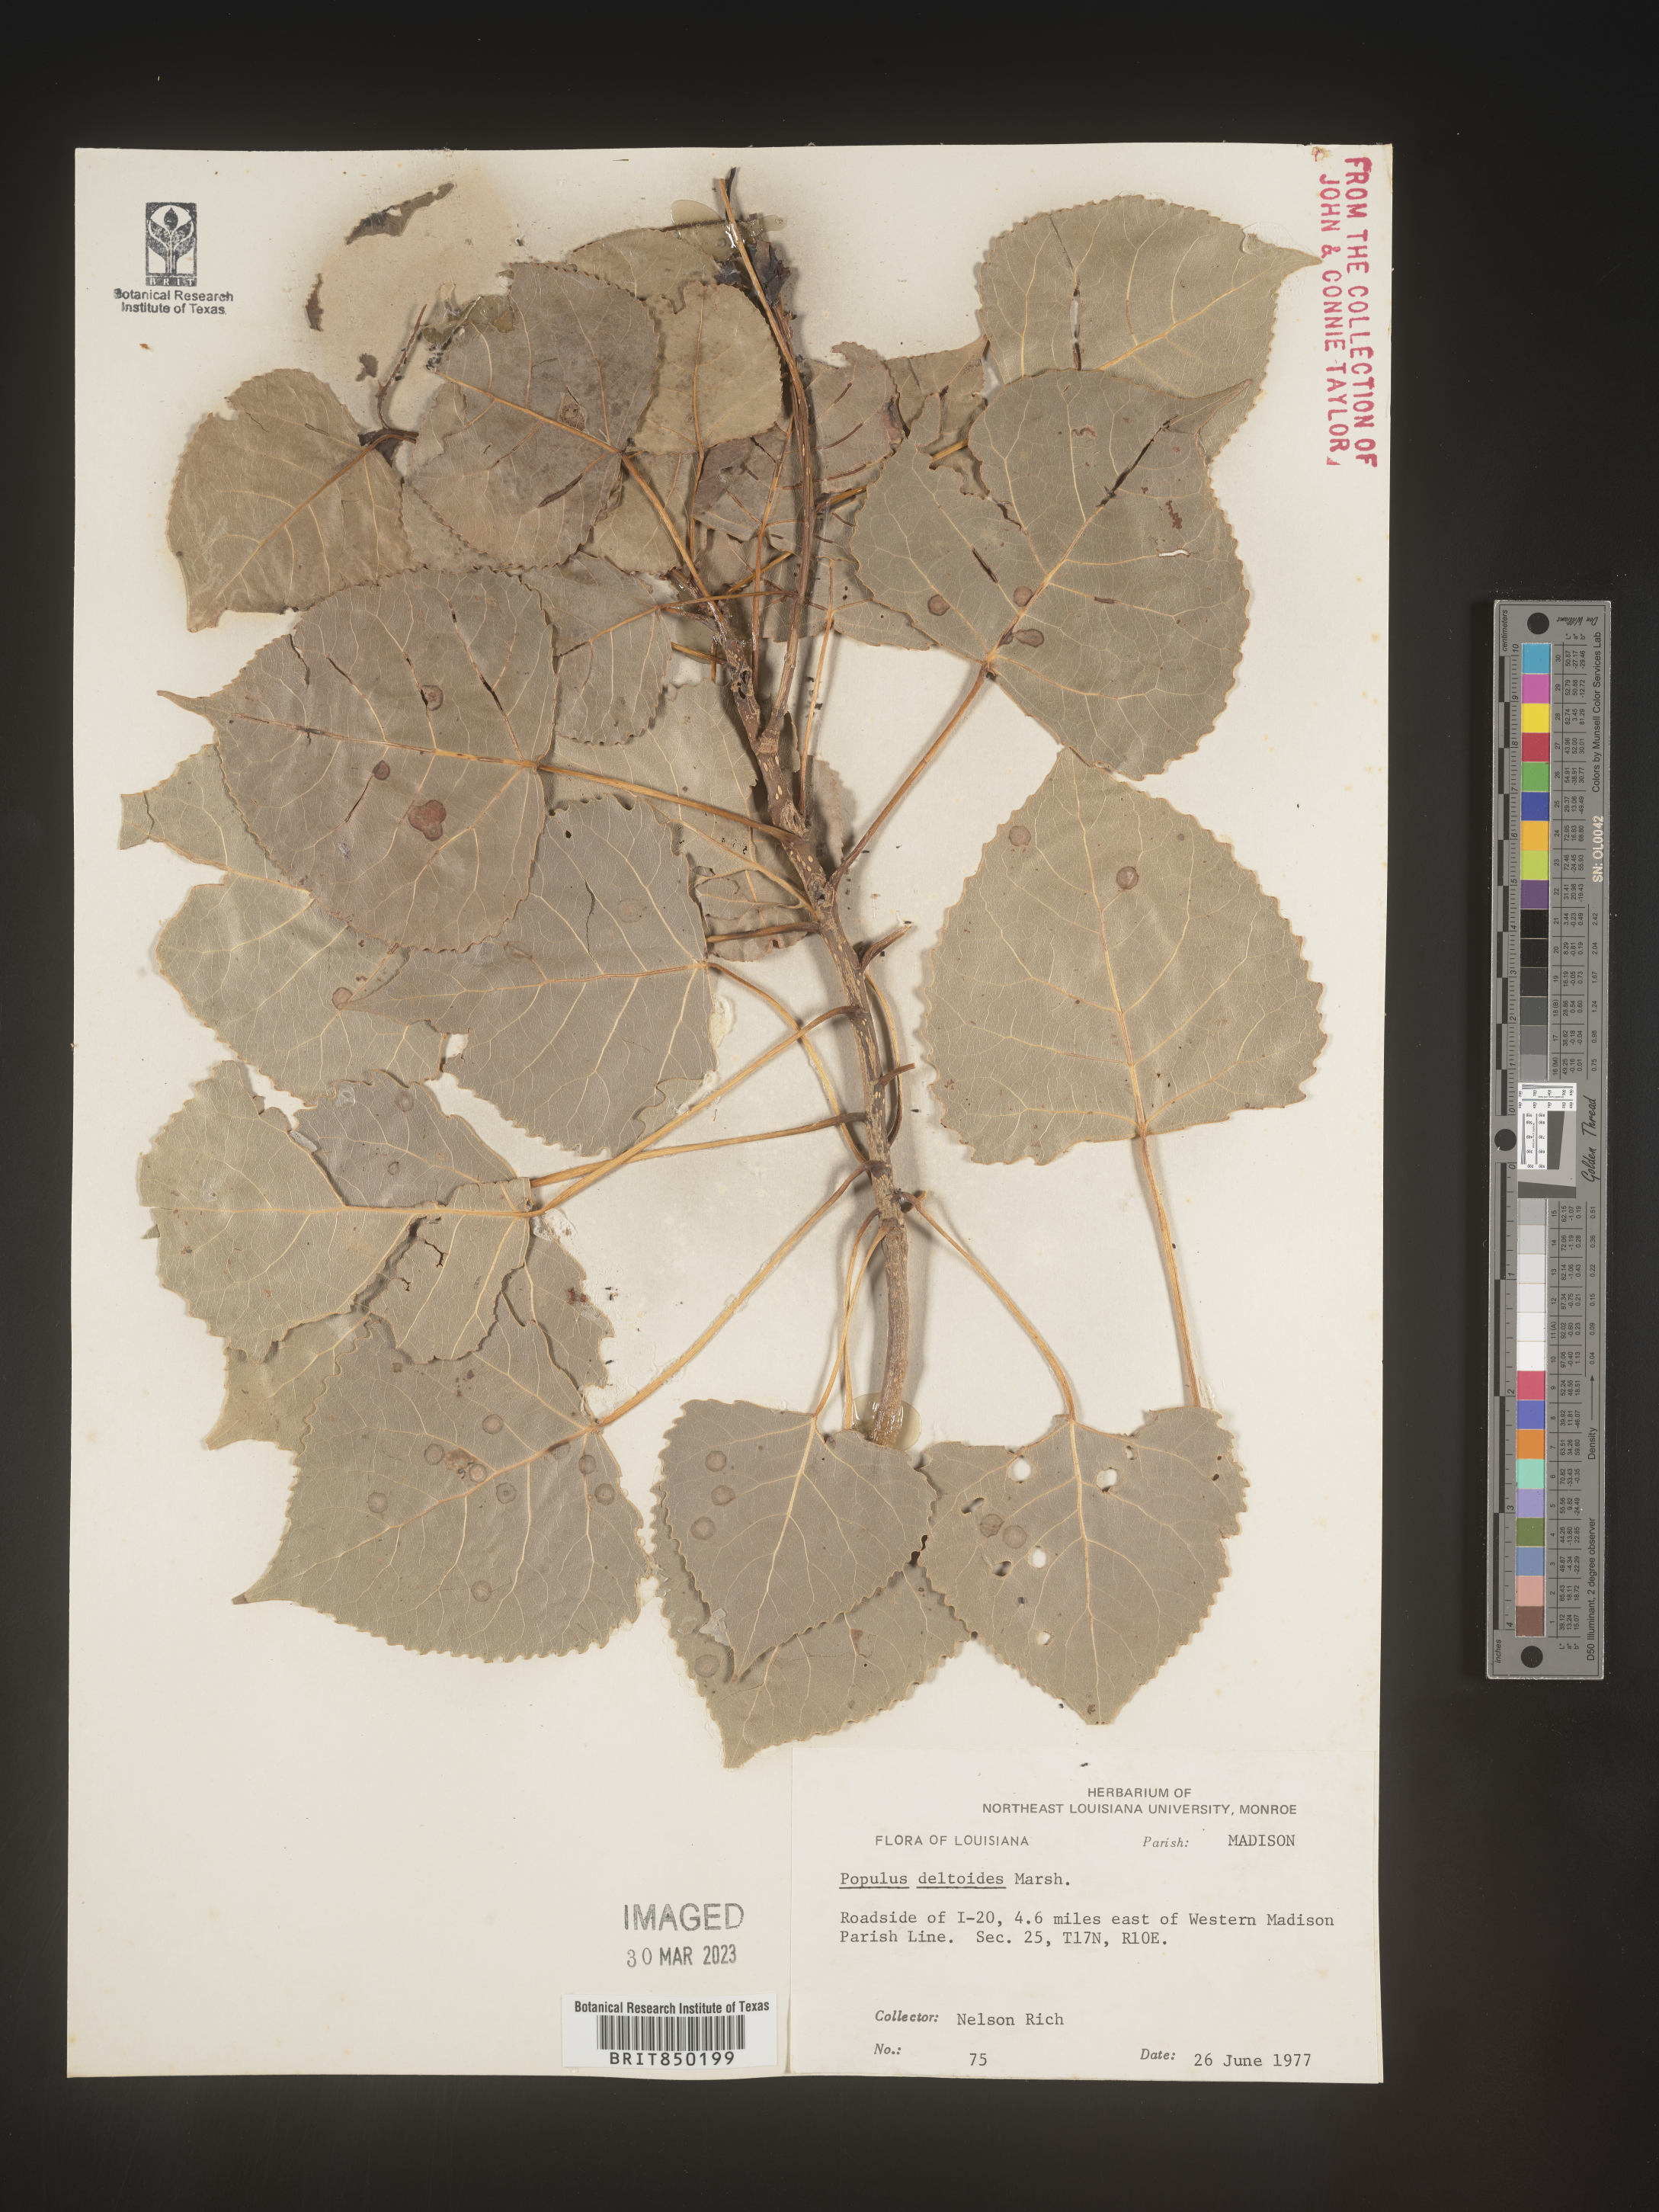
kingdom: Plantae
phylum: Tracheophyta
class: Magnoliopsida
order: Malpighiales
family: Salicaceae
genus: Populus
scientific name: Populus deltoides
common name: Eastern cottonwood
